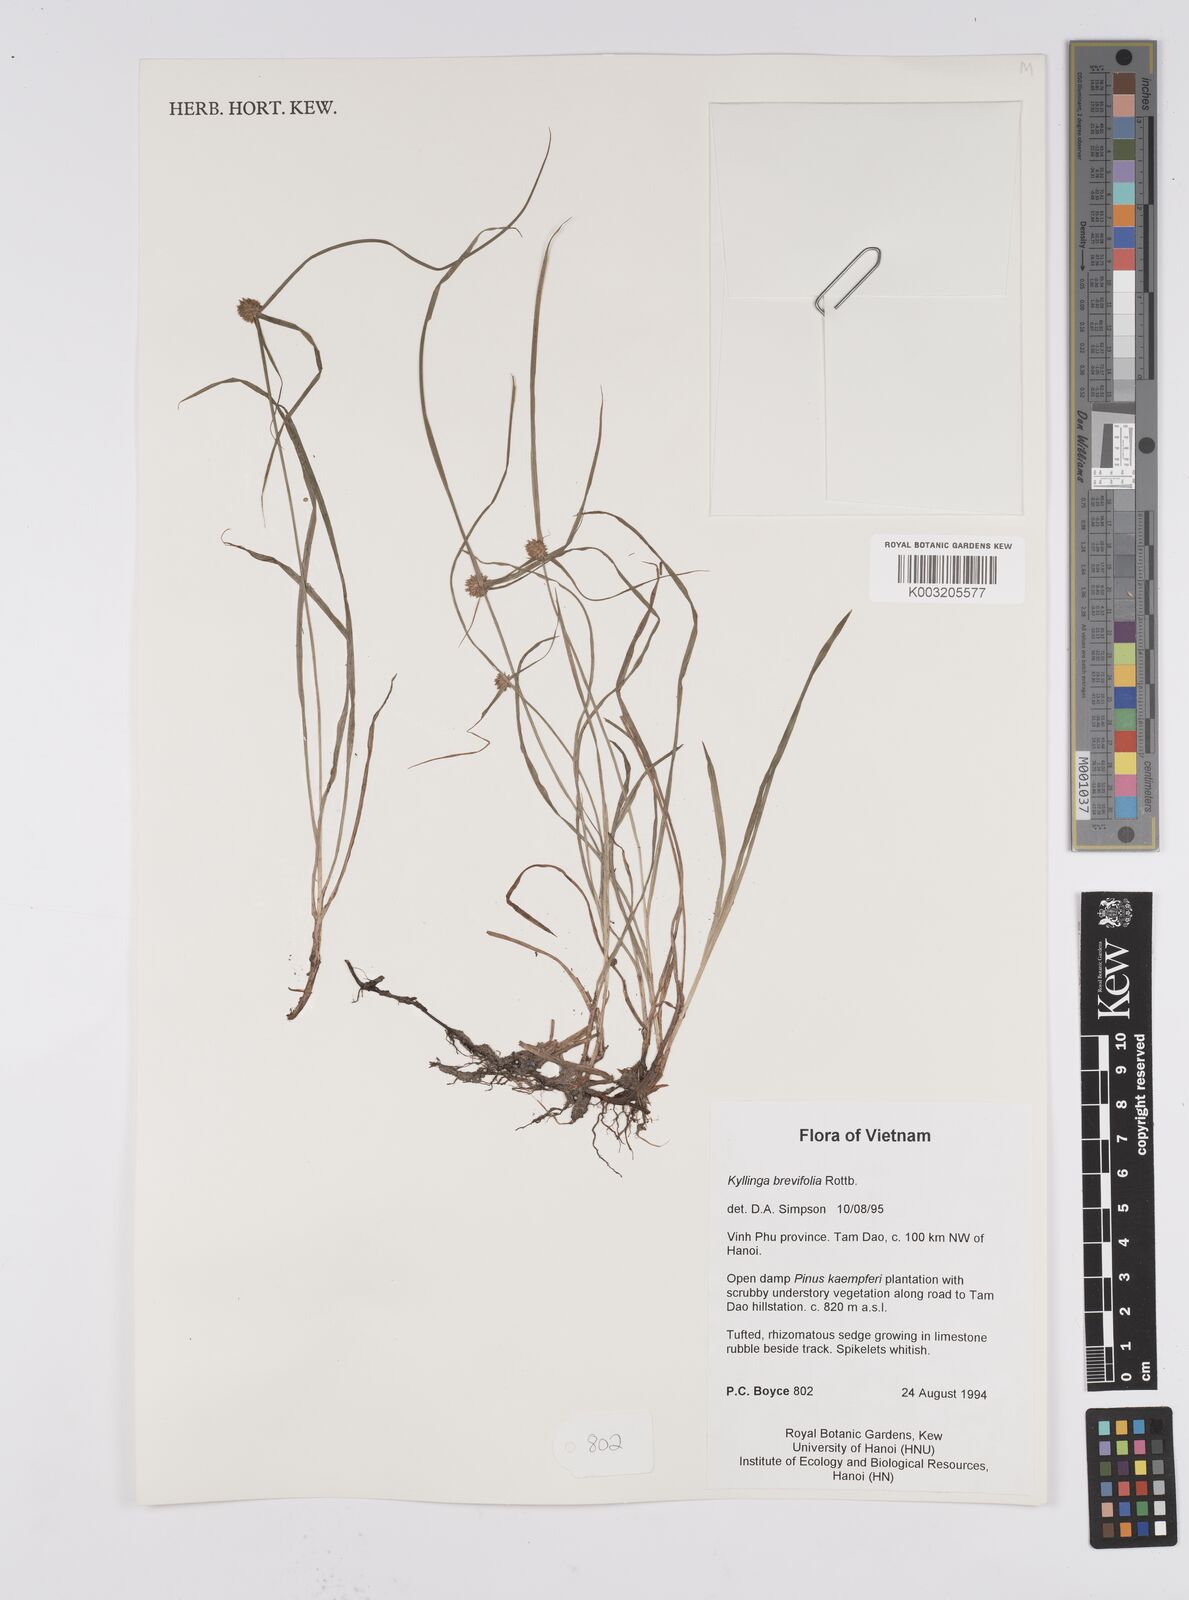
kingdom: Plantae
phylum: Tracheophyta
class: Liliopsida
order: Poales
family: Cyperaceae
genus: Cyperus
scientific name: Cyperus brevifolius
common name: Globe kyllinga
